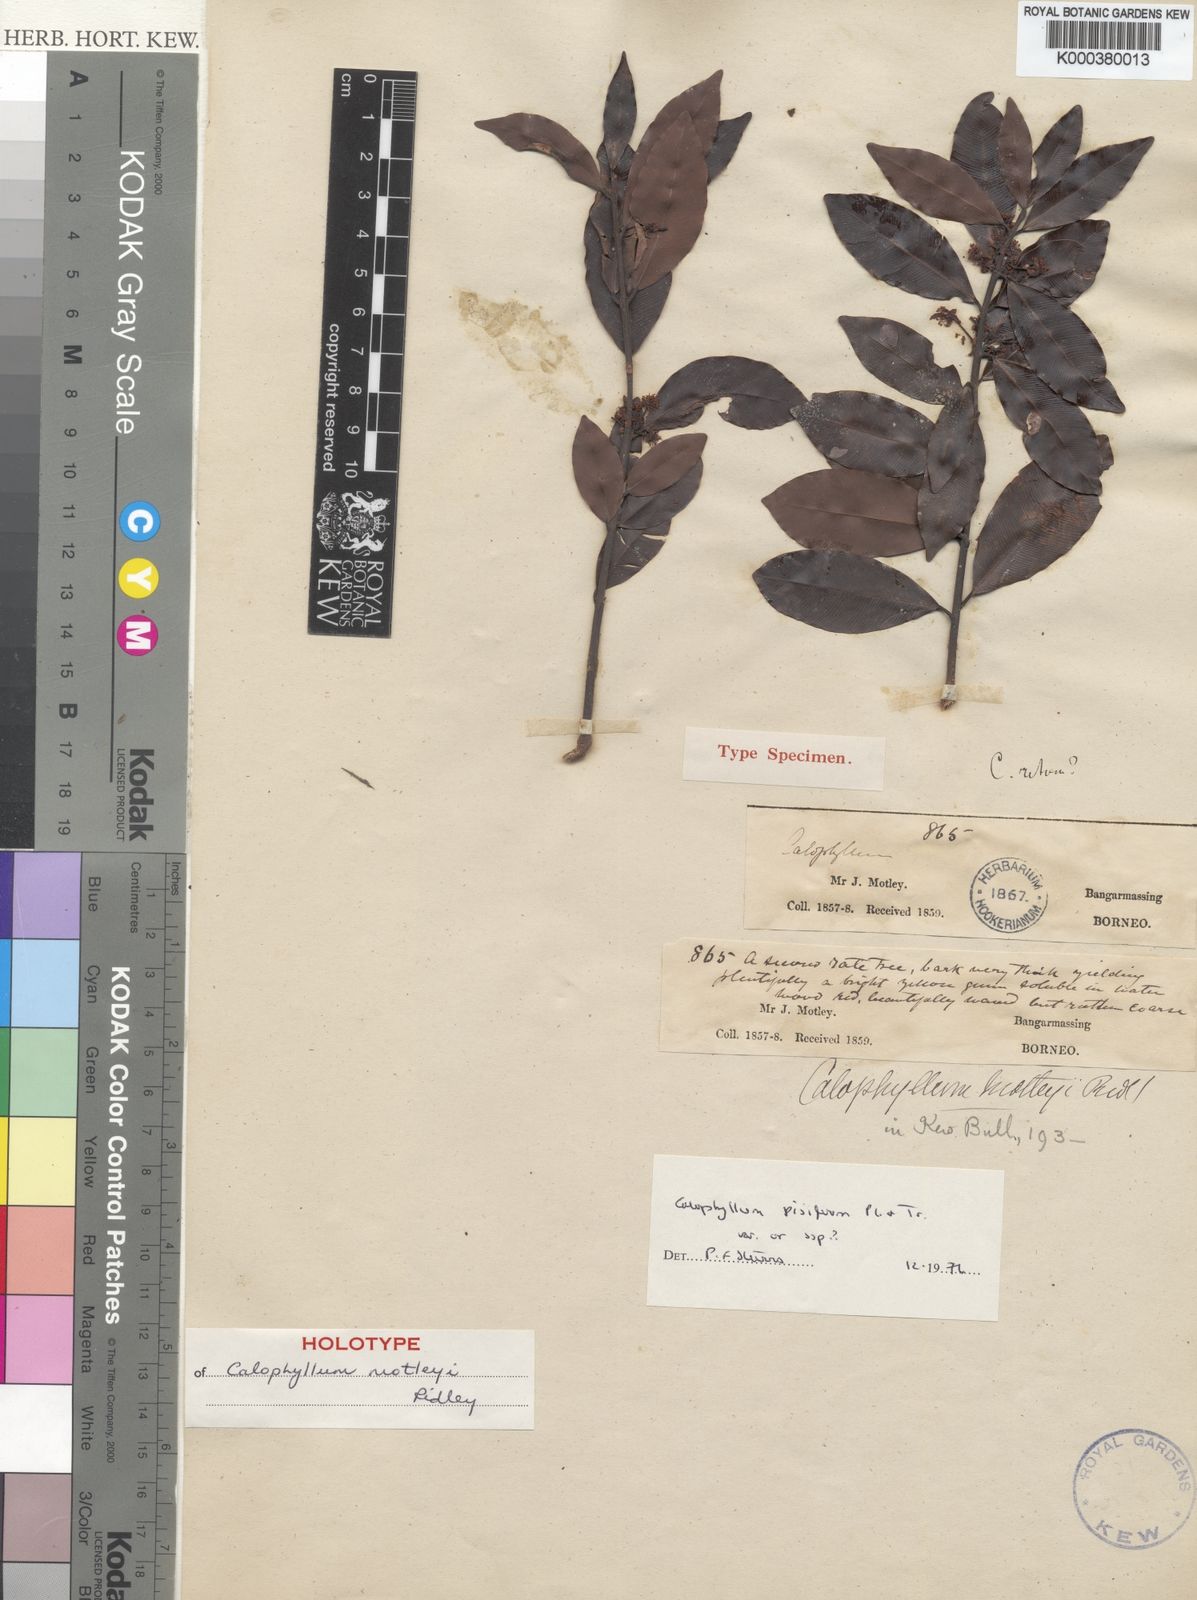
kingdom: Plantae
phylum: Tracheophyta
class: Magnoliopsida
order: Malpighiales
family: Calophyllaceae
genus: Calophyllum
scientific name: Calophyllum pisiferum
